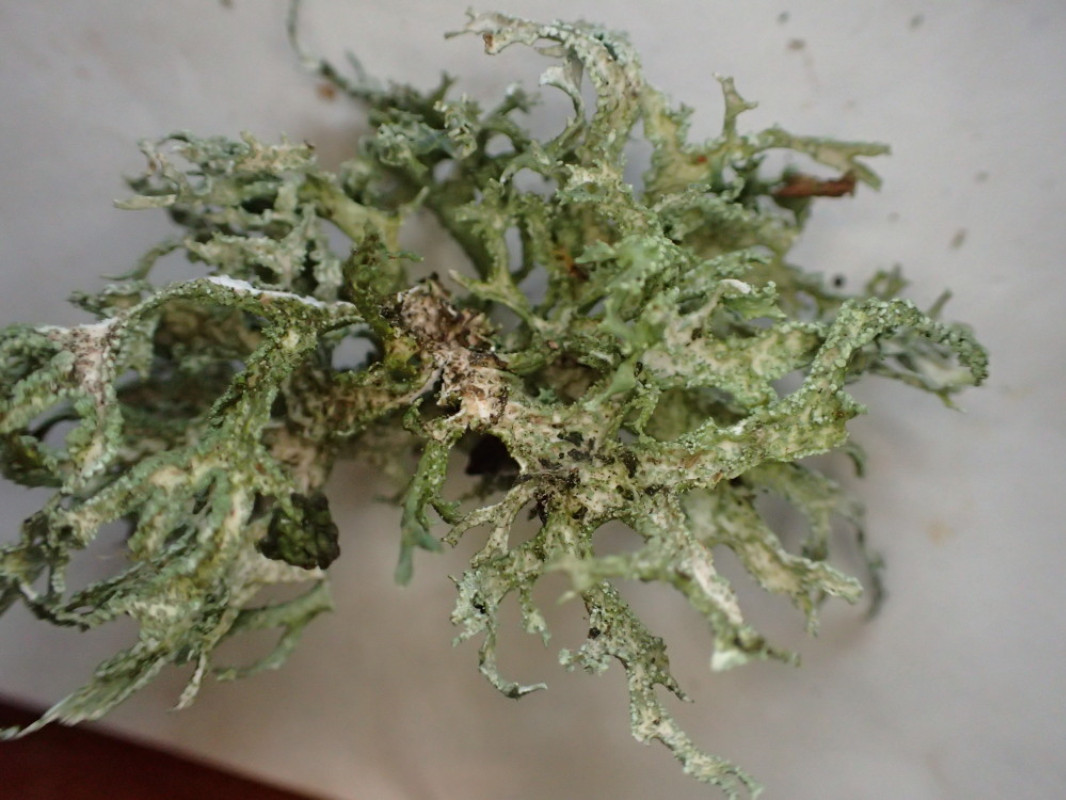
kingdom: Fungi
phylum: Ascomycota
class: Lecanoromycetes
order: Lecanorales
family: Parmeliaceae
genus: Evernia
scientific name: Evernia prunastri
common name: almindelig slåenlav
